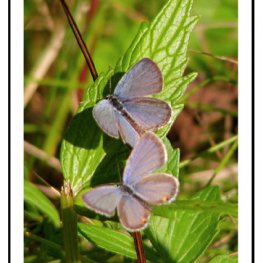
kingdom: Animalia
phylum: Arthropoda
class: Insecta
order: Lepidoptera
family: Lycaenidae
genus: Elkalyce
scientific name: Elkalyce comyntas
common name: Eastern Tailed-Blue
